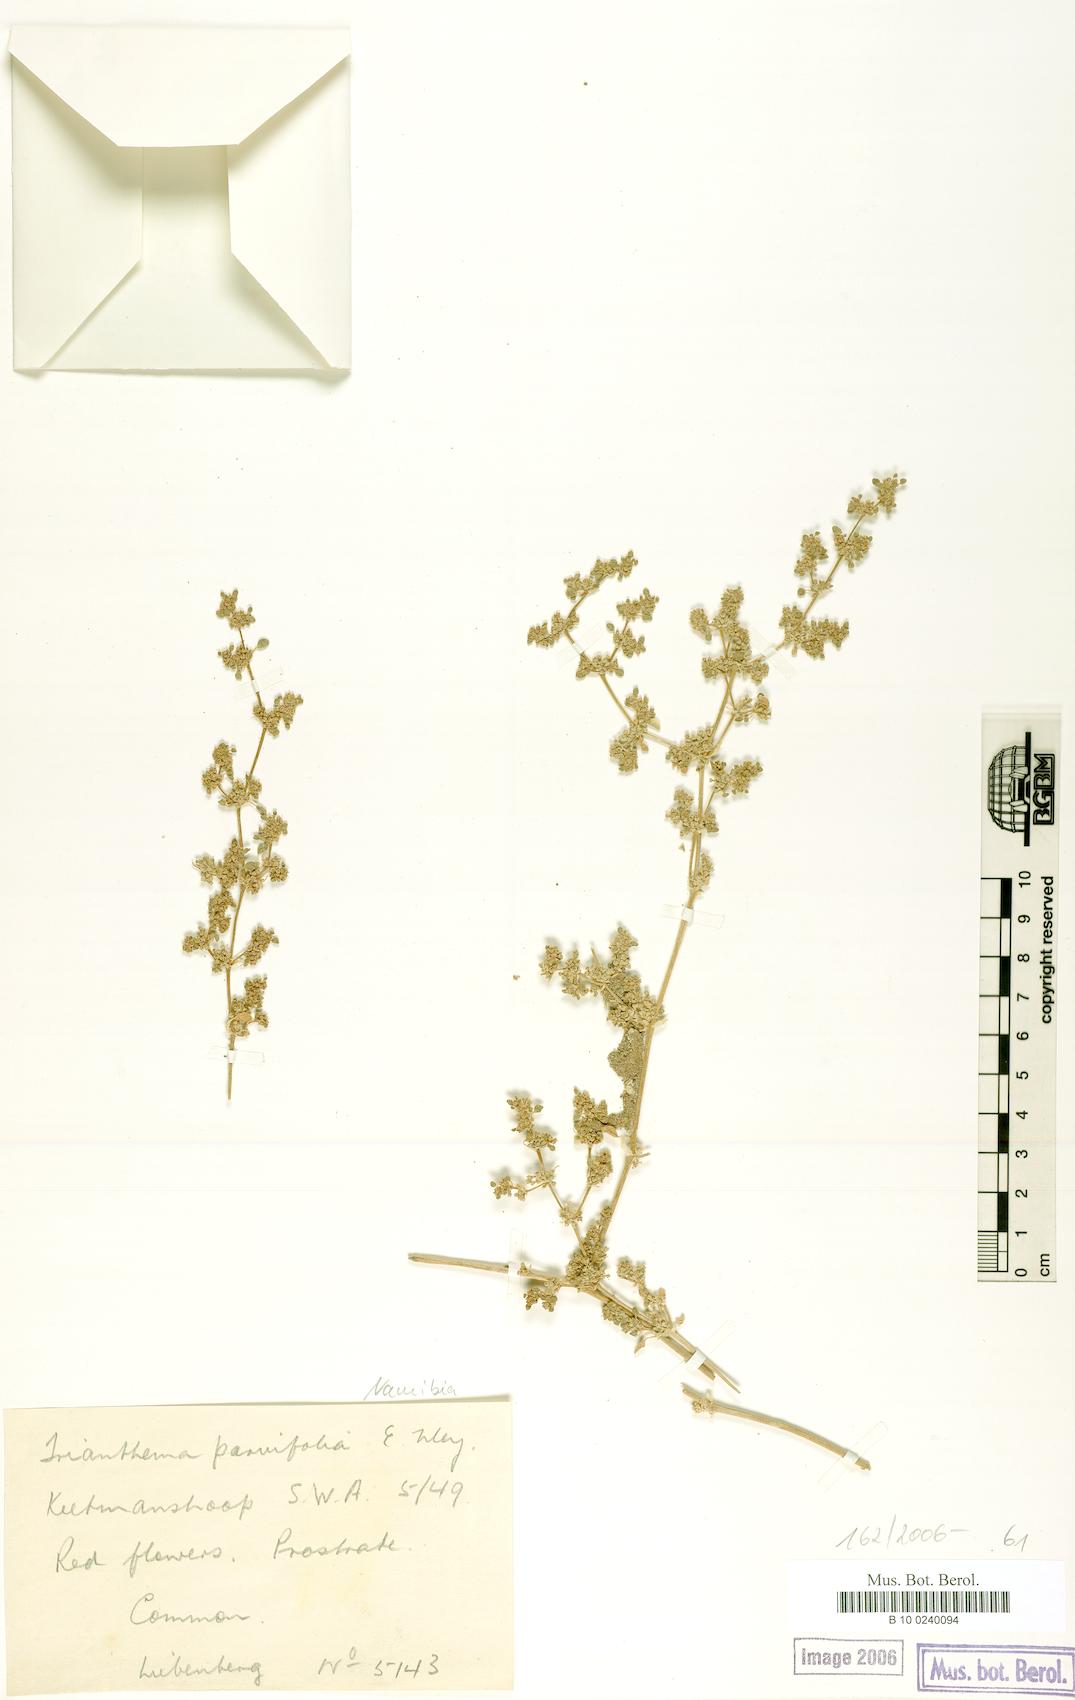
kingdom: Plantae
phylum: Tracheophyta
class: Magnoliopsida
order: Caryophyllales
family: Aizoaceae
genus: Trianthema
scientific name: Trianthema parvifolium
